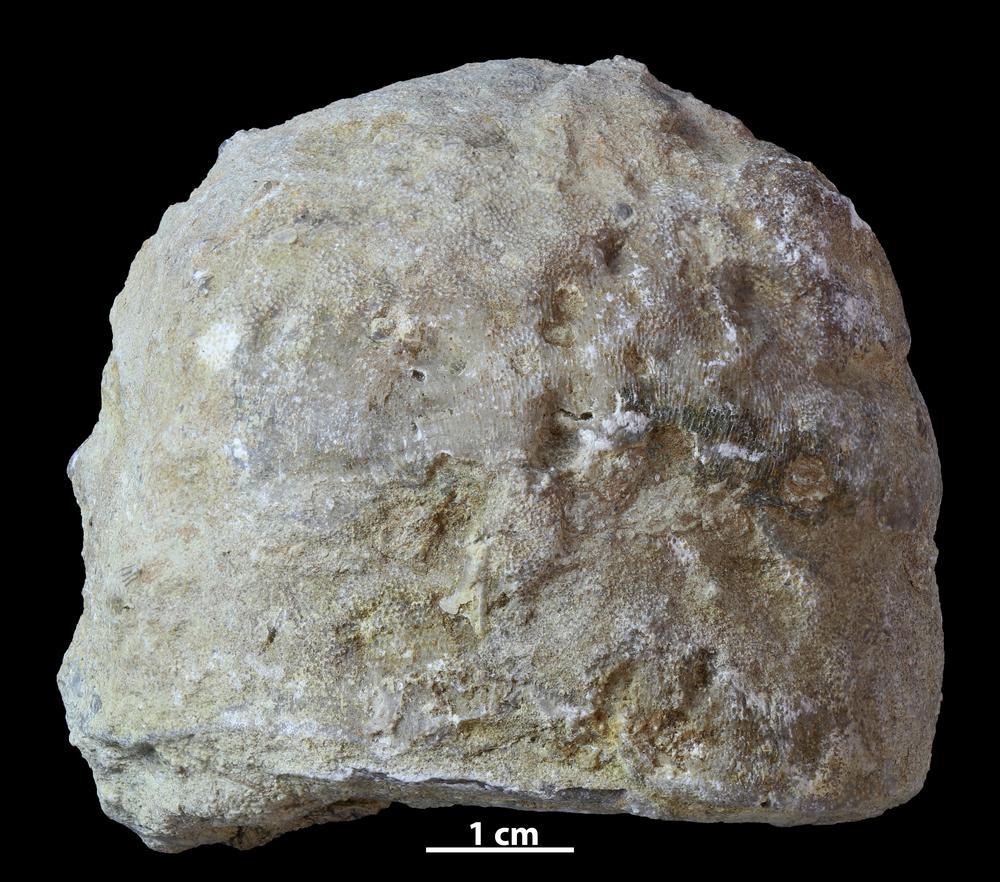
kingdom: Animalia
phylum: Bryozoa
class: Stenolaemata
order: Trepostomatida
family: Diplotrypidae
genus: Diplotrypa
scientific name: Diplotrypa
